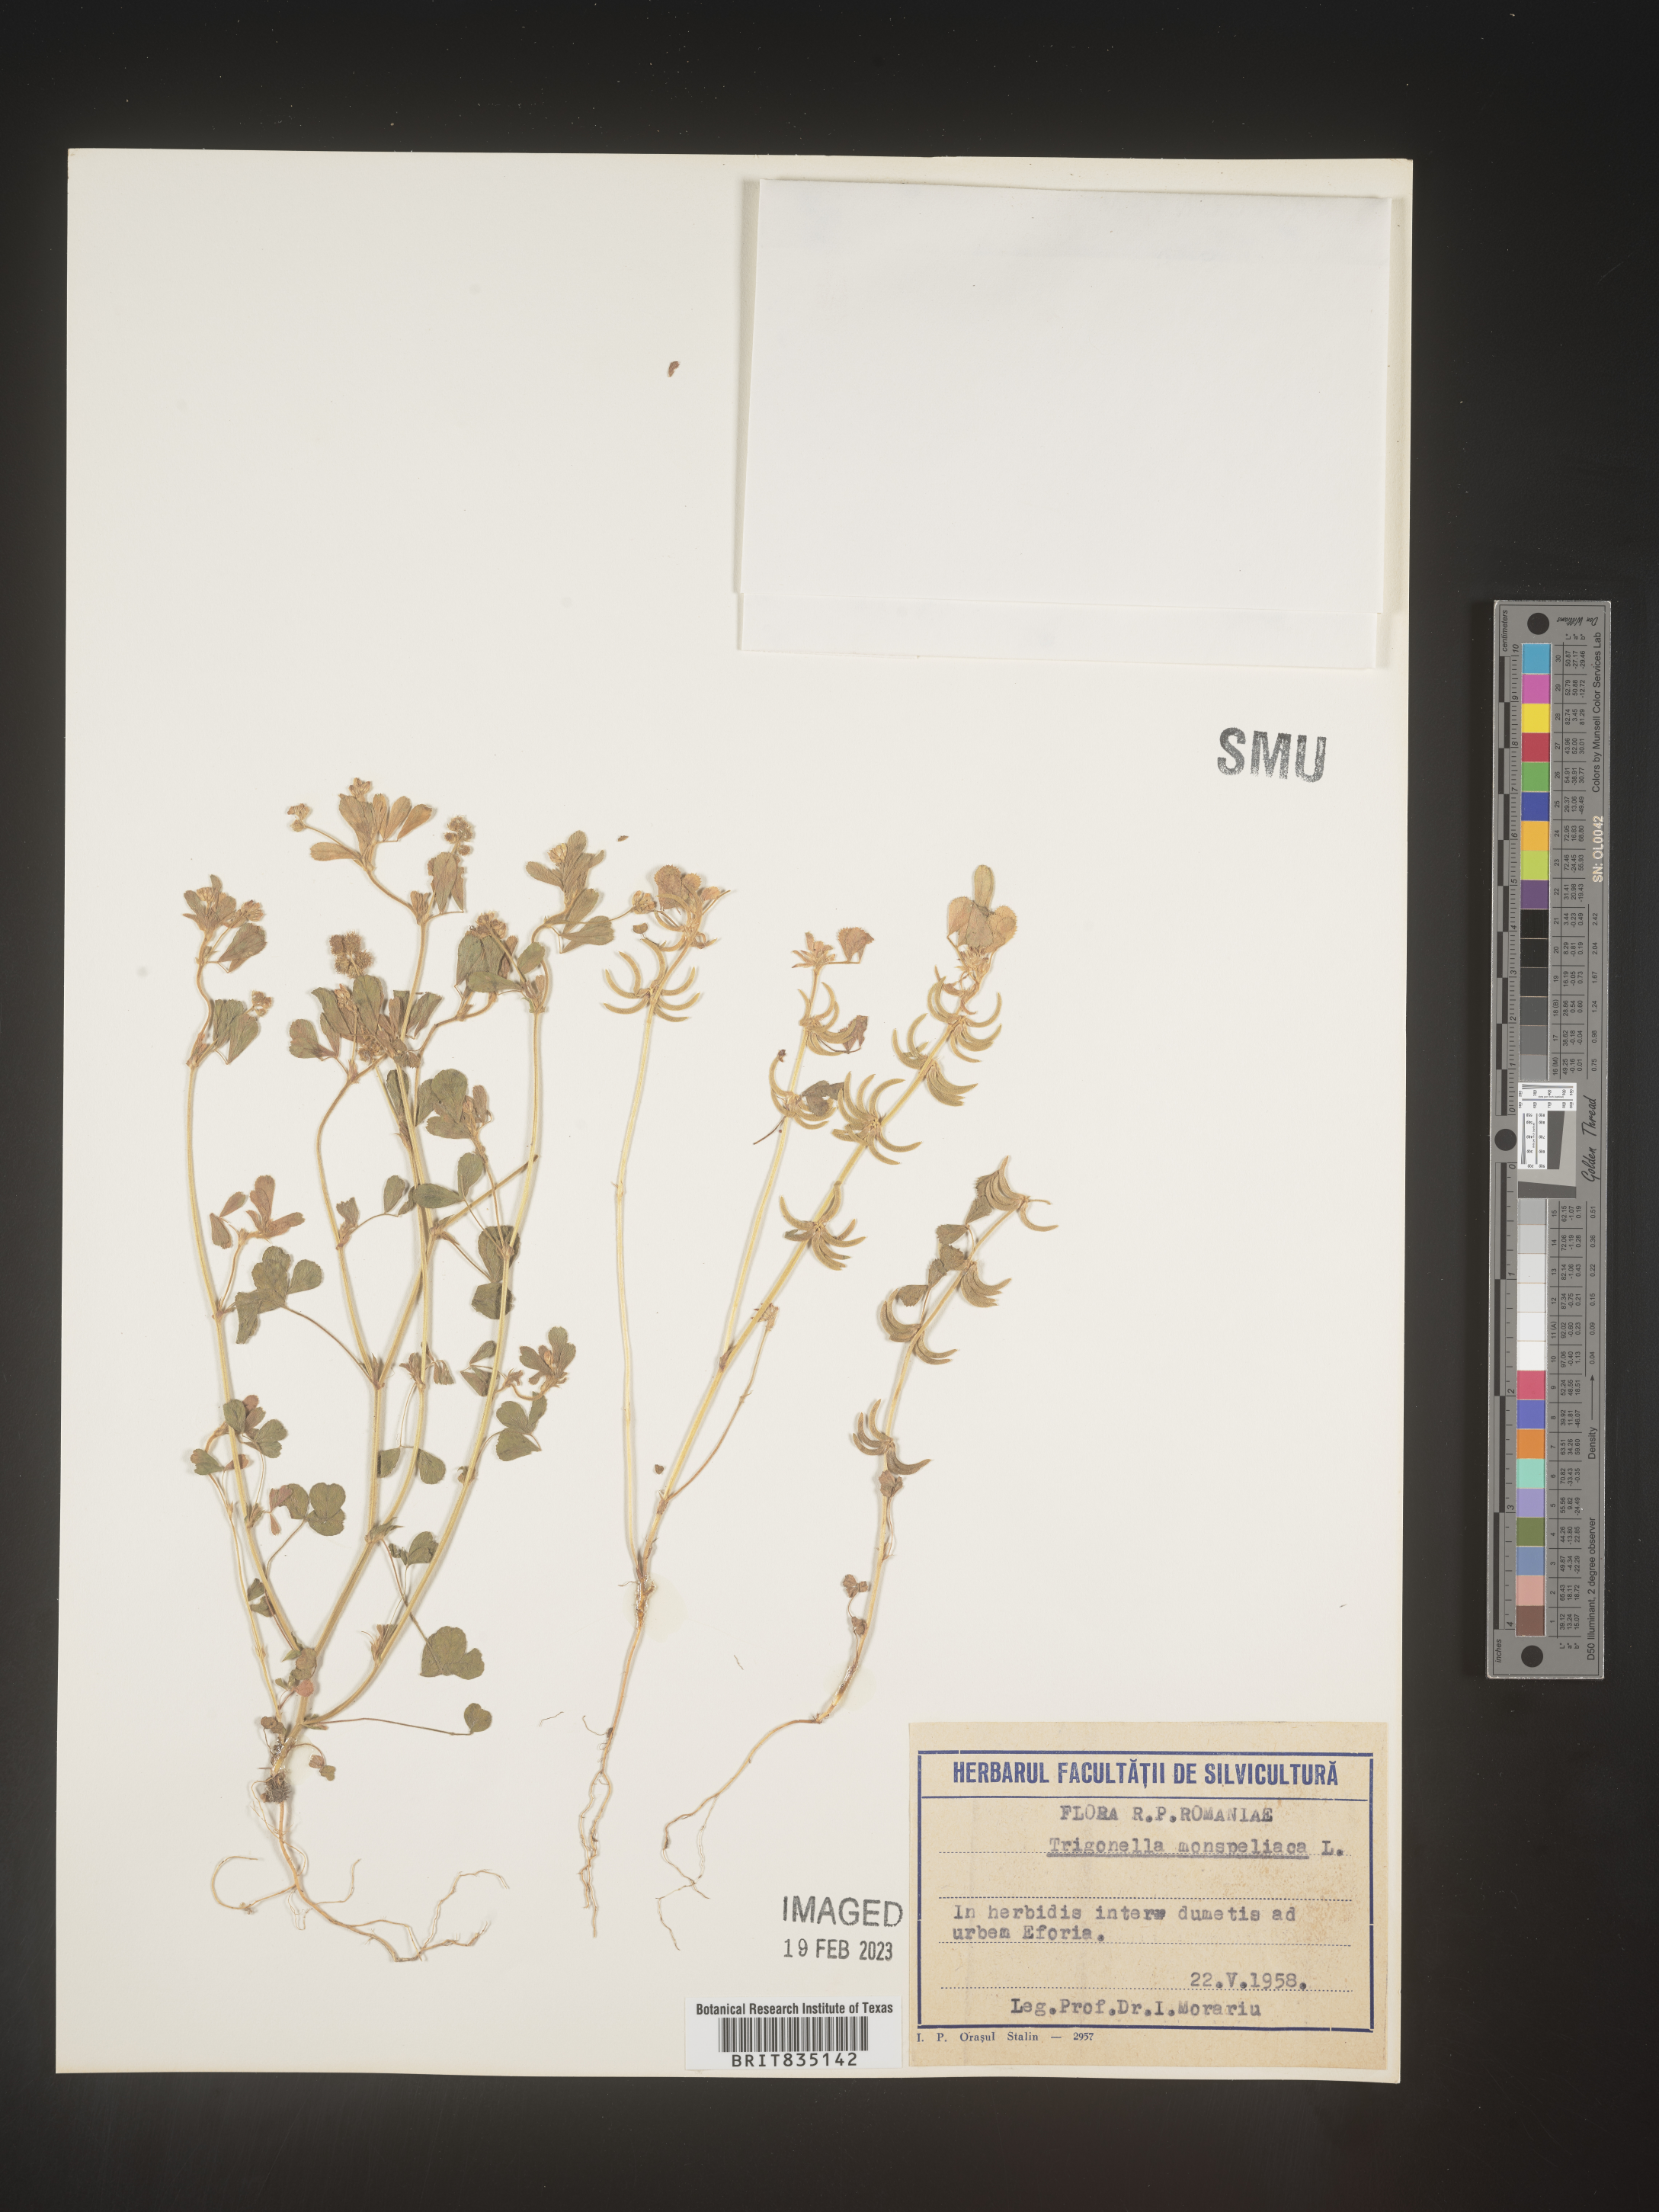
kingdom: Plantae
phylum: Tracheophyta
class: Magnoliopsida
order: Fabales
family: Fabaceae
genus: Trigonella
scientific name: Trigonella
